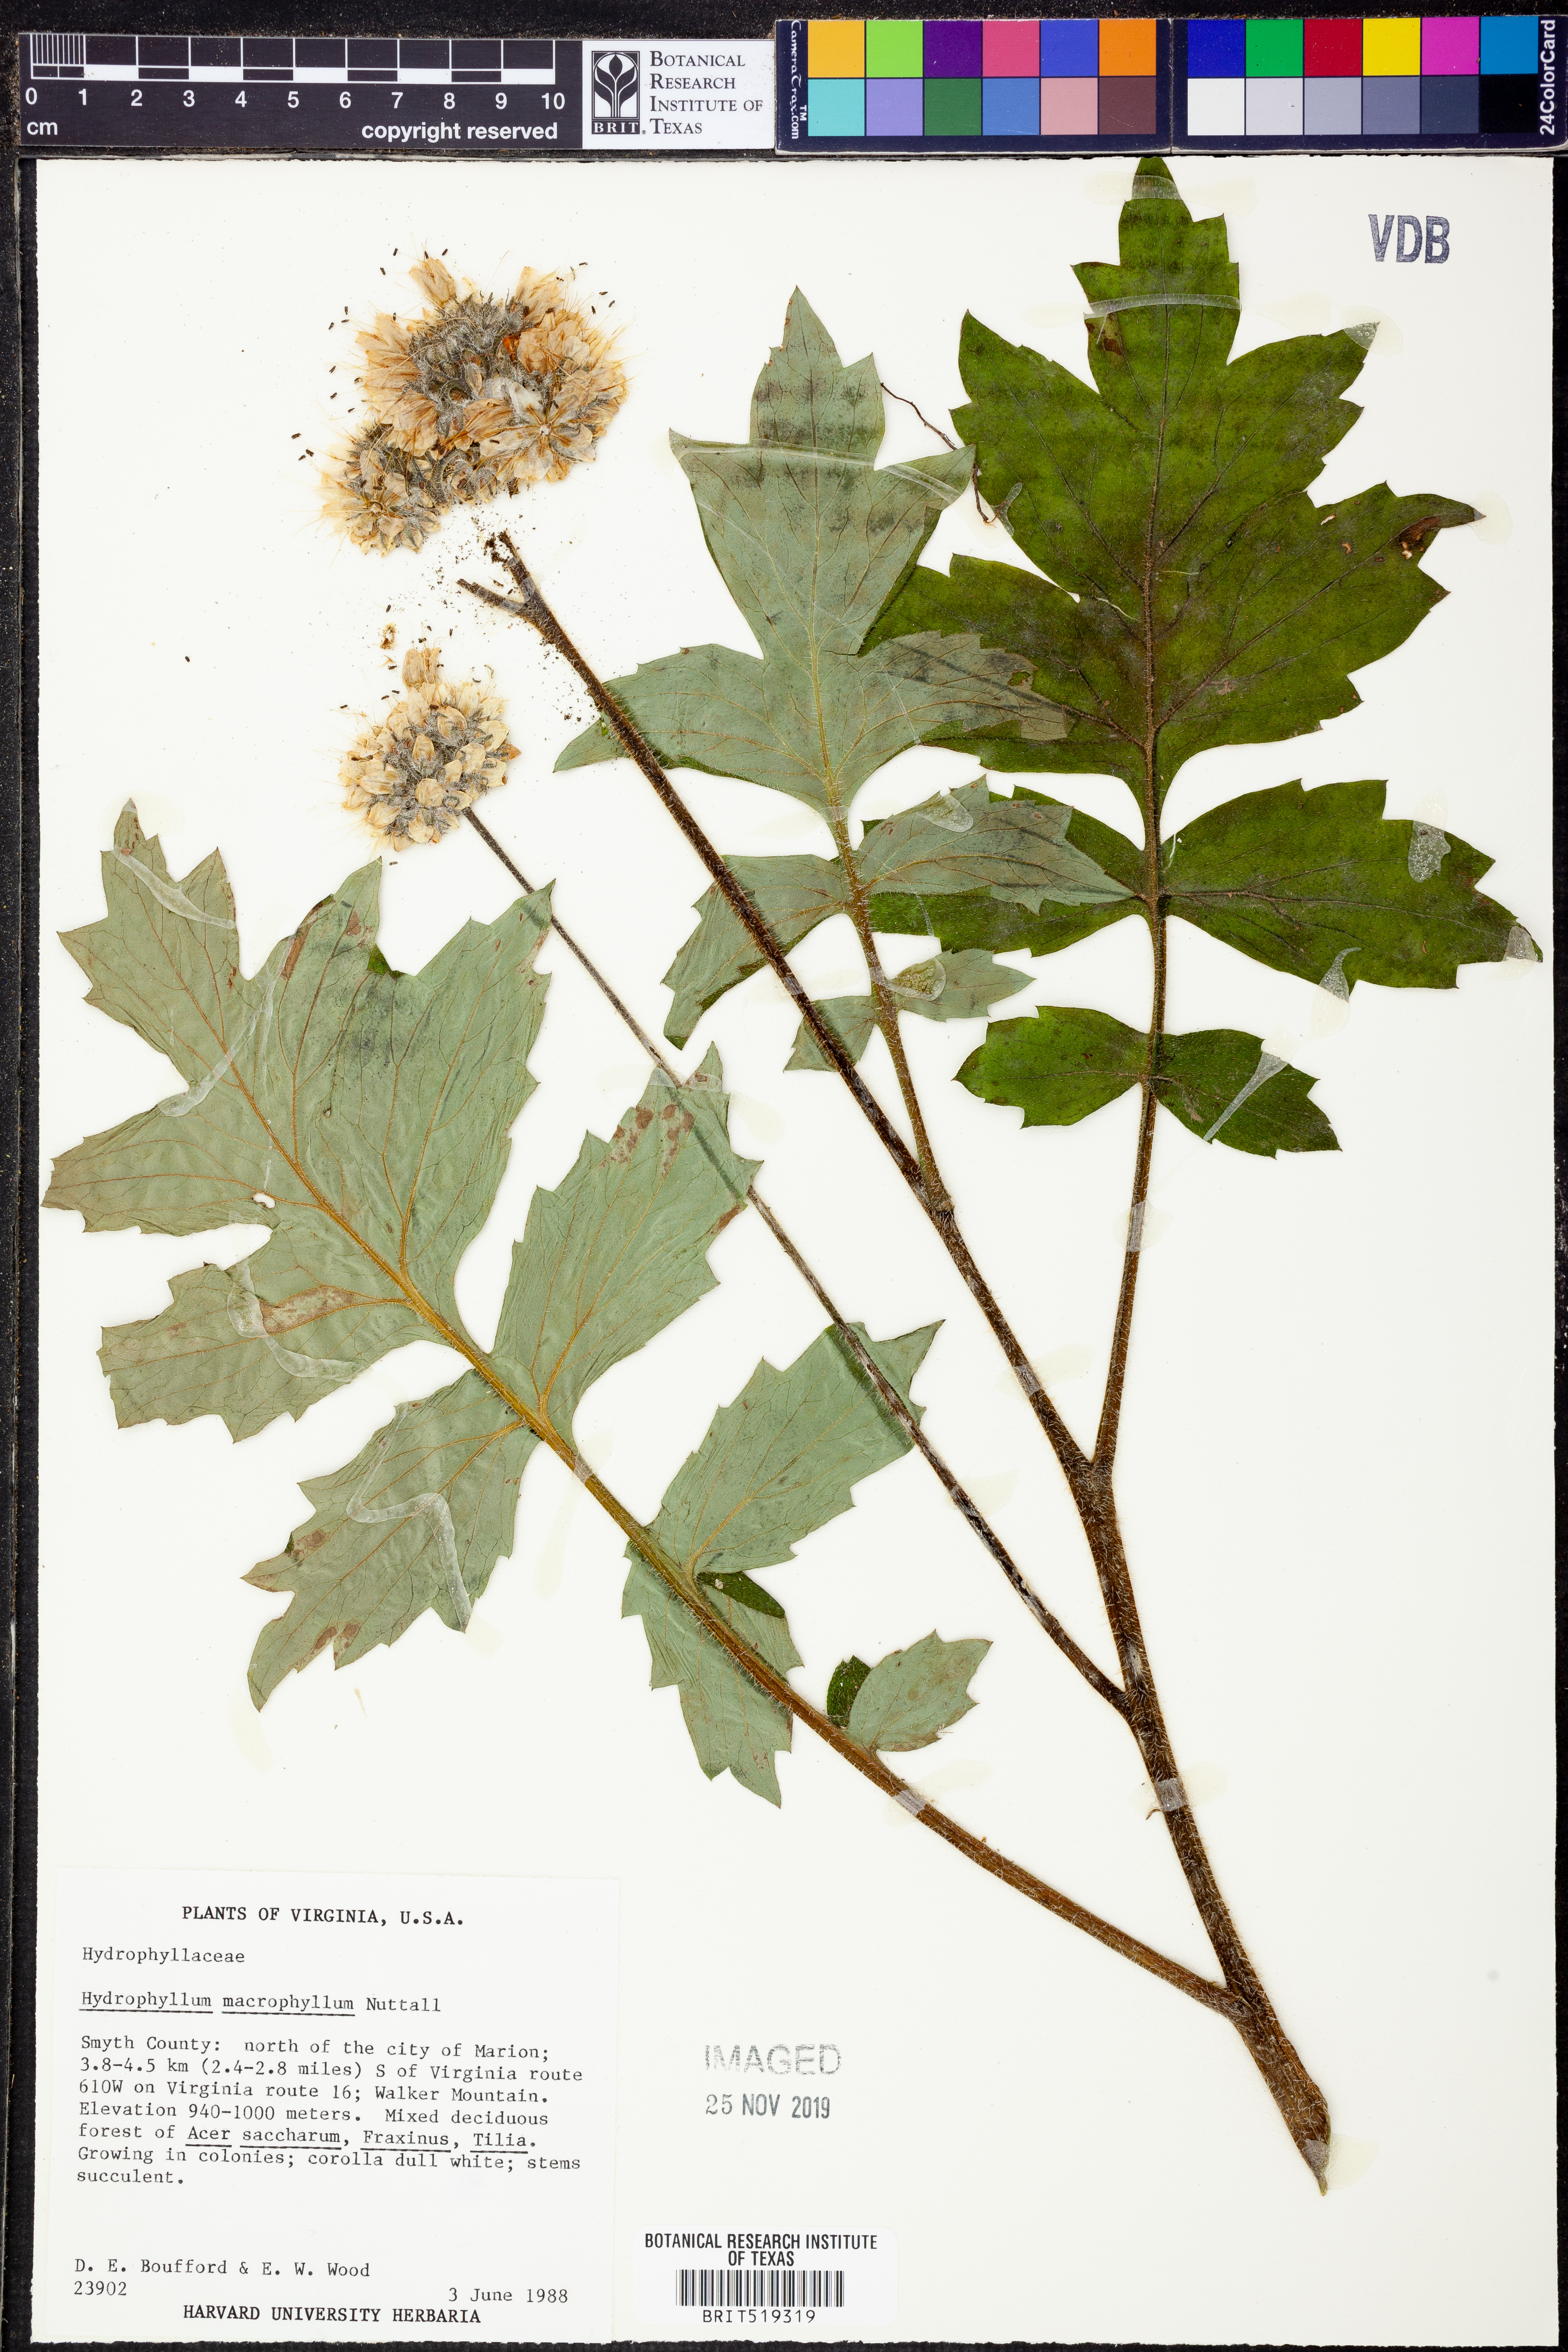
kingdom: Plantae
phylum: Tracheophyta
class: Magnoliopsida
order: Boraginales
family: Hydrophyllaceae
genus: Hydrophyllum
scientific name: Hydrophyllum macrophyllum
